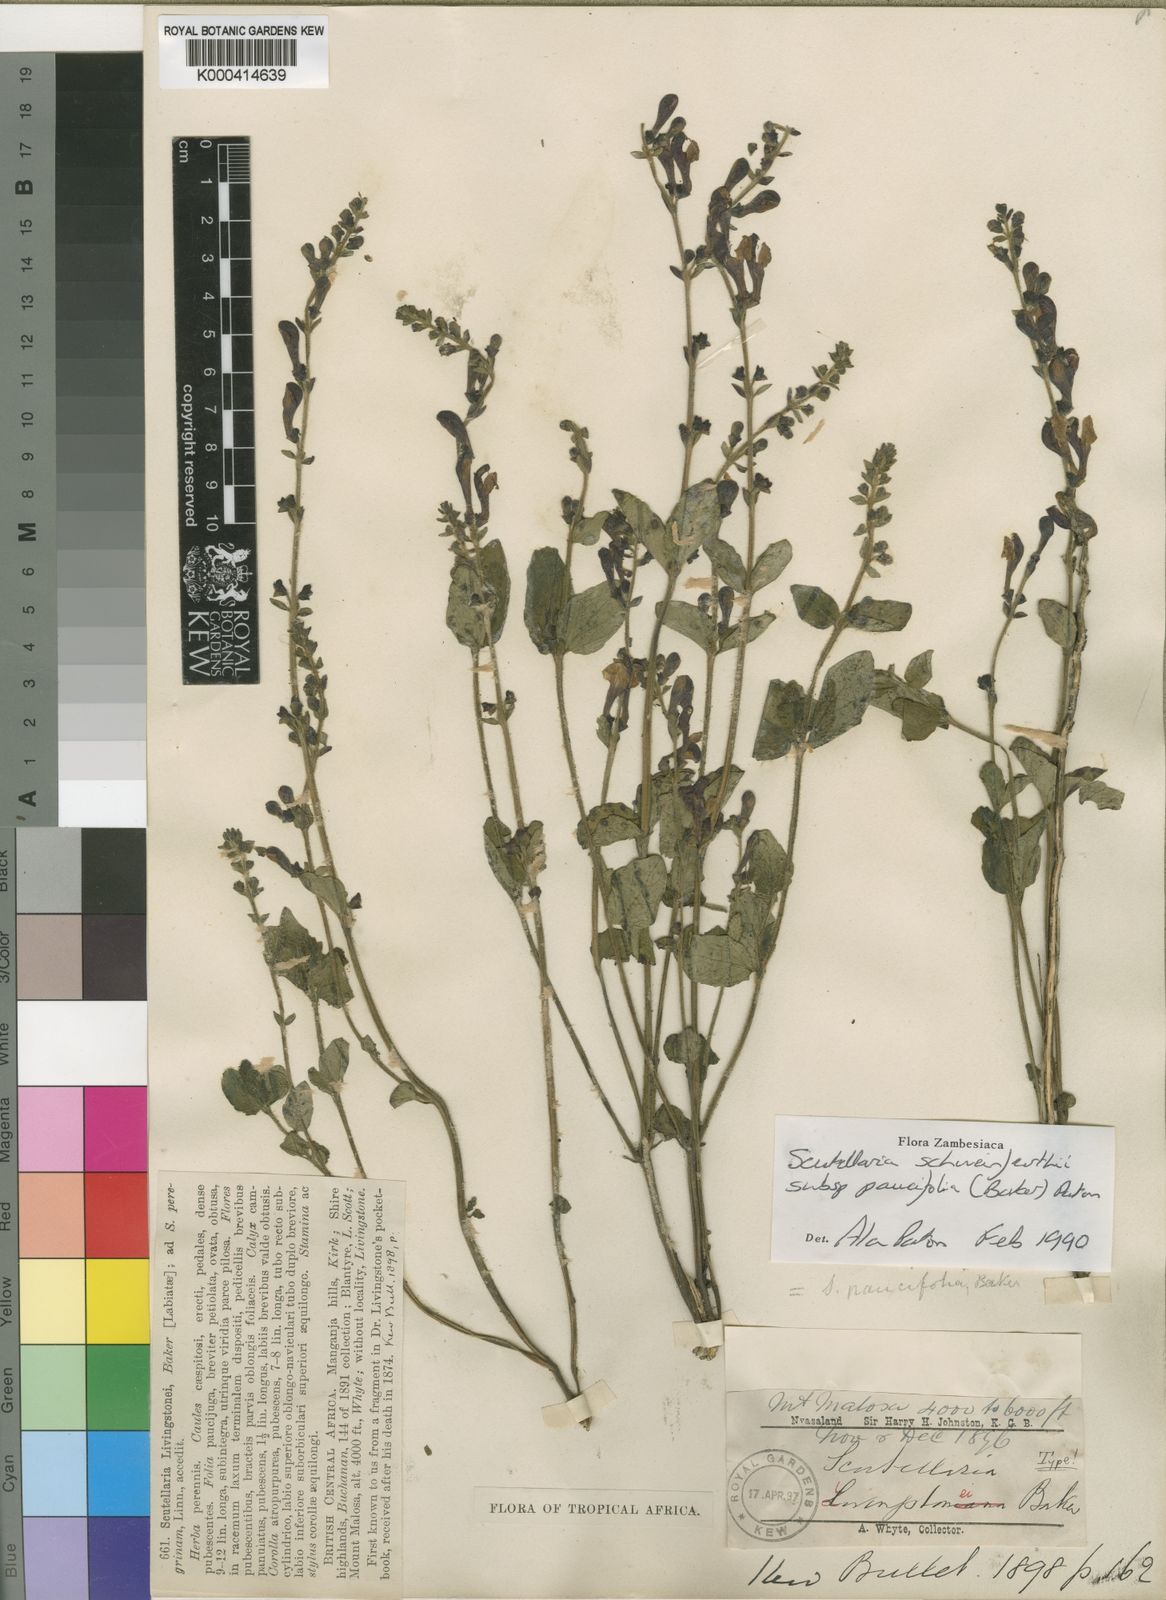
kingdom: Plantae
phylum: Tracheophyta
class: Magnoliopsida
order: Lamiales
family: Lamiaceae
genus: Scutellaria
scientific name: Scutellaria schweinfurthii
